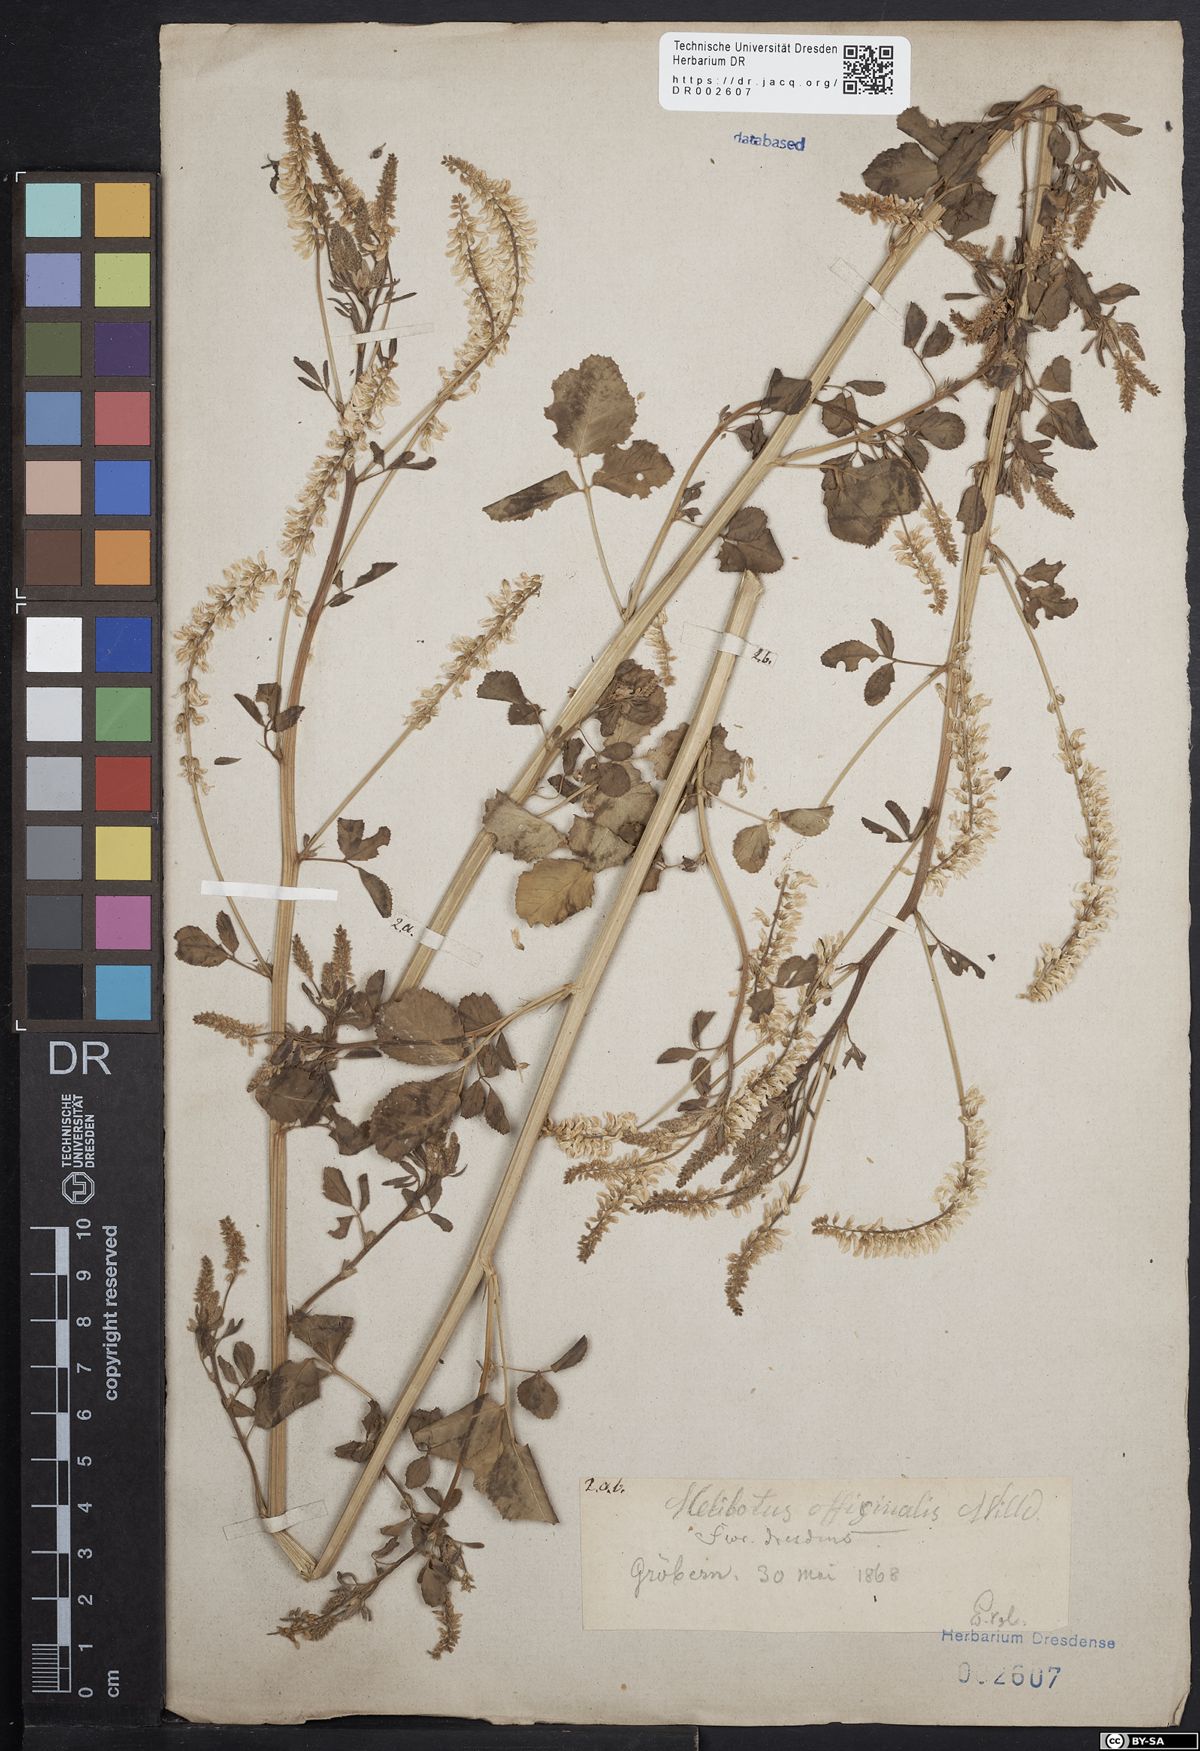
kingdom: Plantae
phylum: Tracheophyta
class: Magnoliopsida
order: Fabales
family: Fabaceae
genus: Melilotus
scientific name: Melilotus officinalis
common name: Sweetclover
